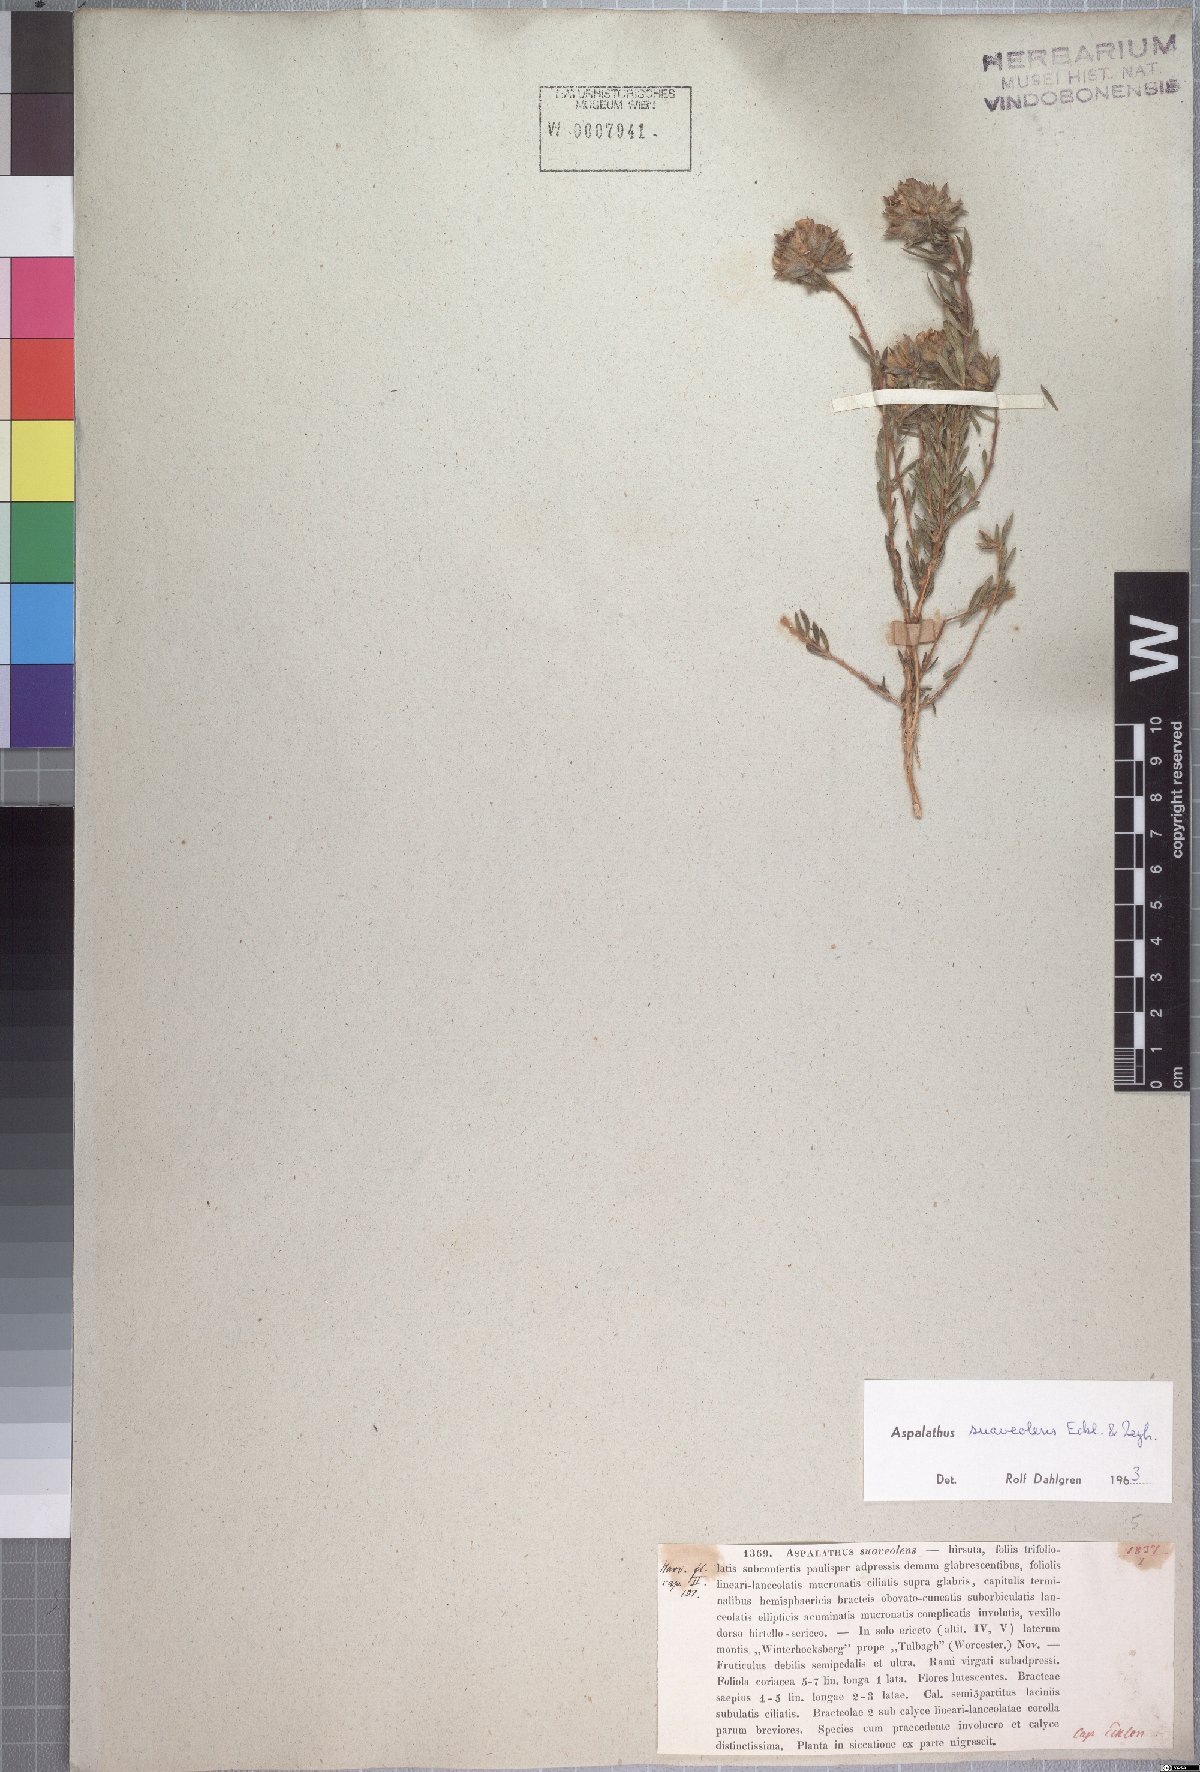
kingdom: Plantae
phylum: Tracheophyta
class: Magnoliopsida
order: Fabales
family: Fabaceae
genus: Aspalathus
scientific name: Aspalathus suaveolens
